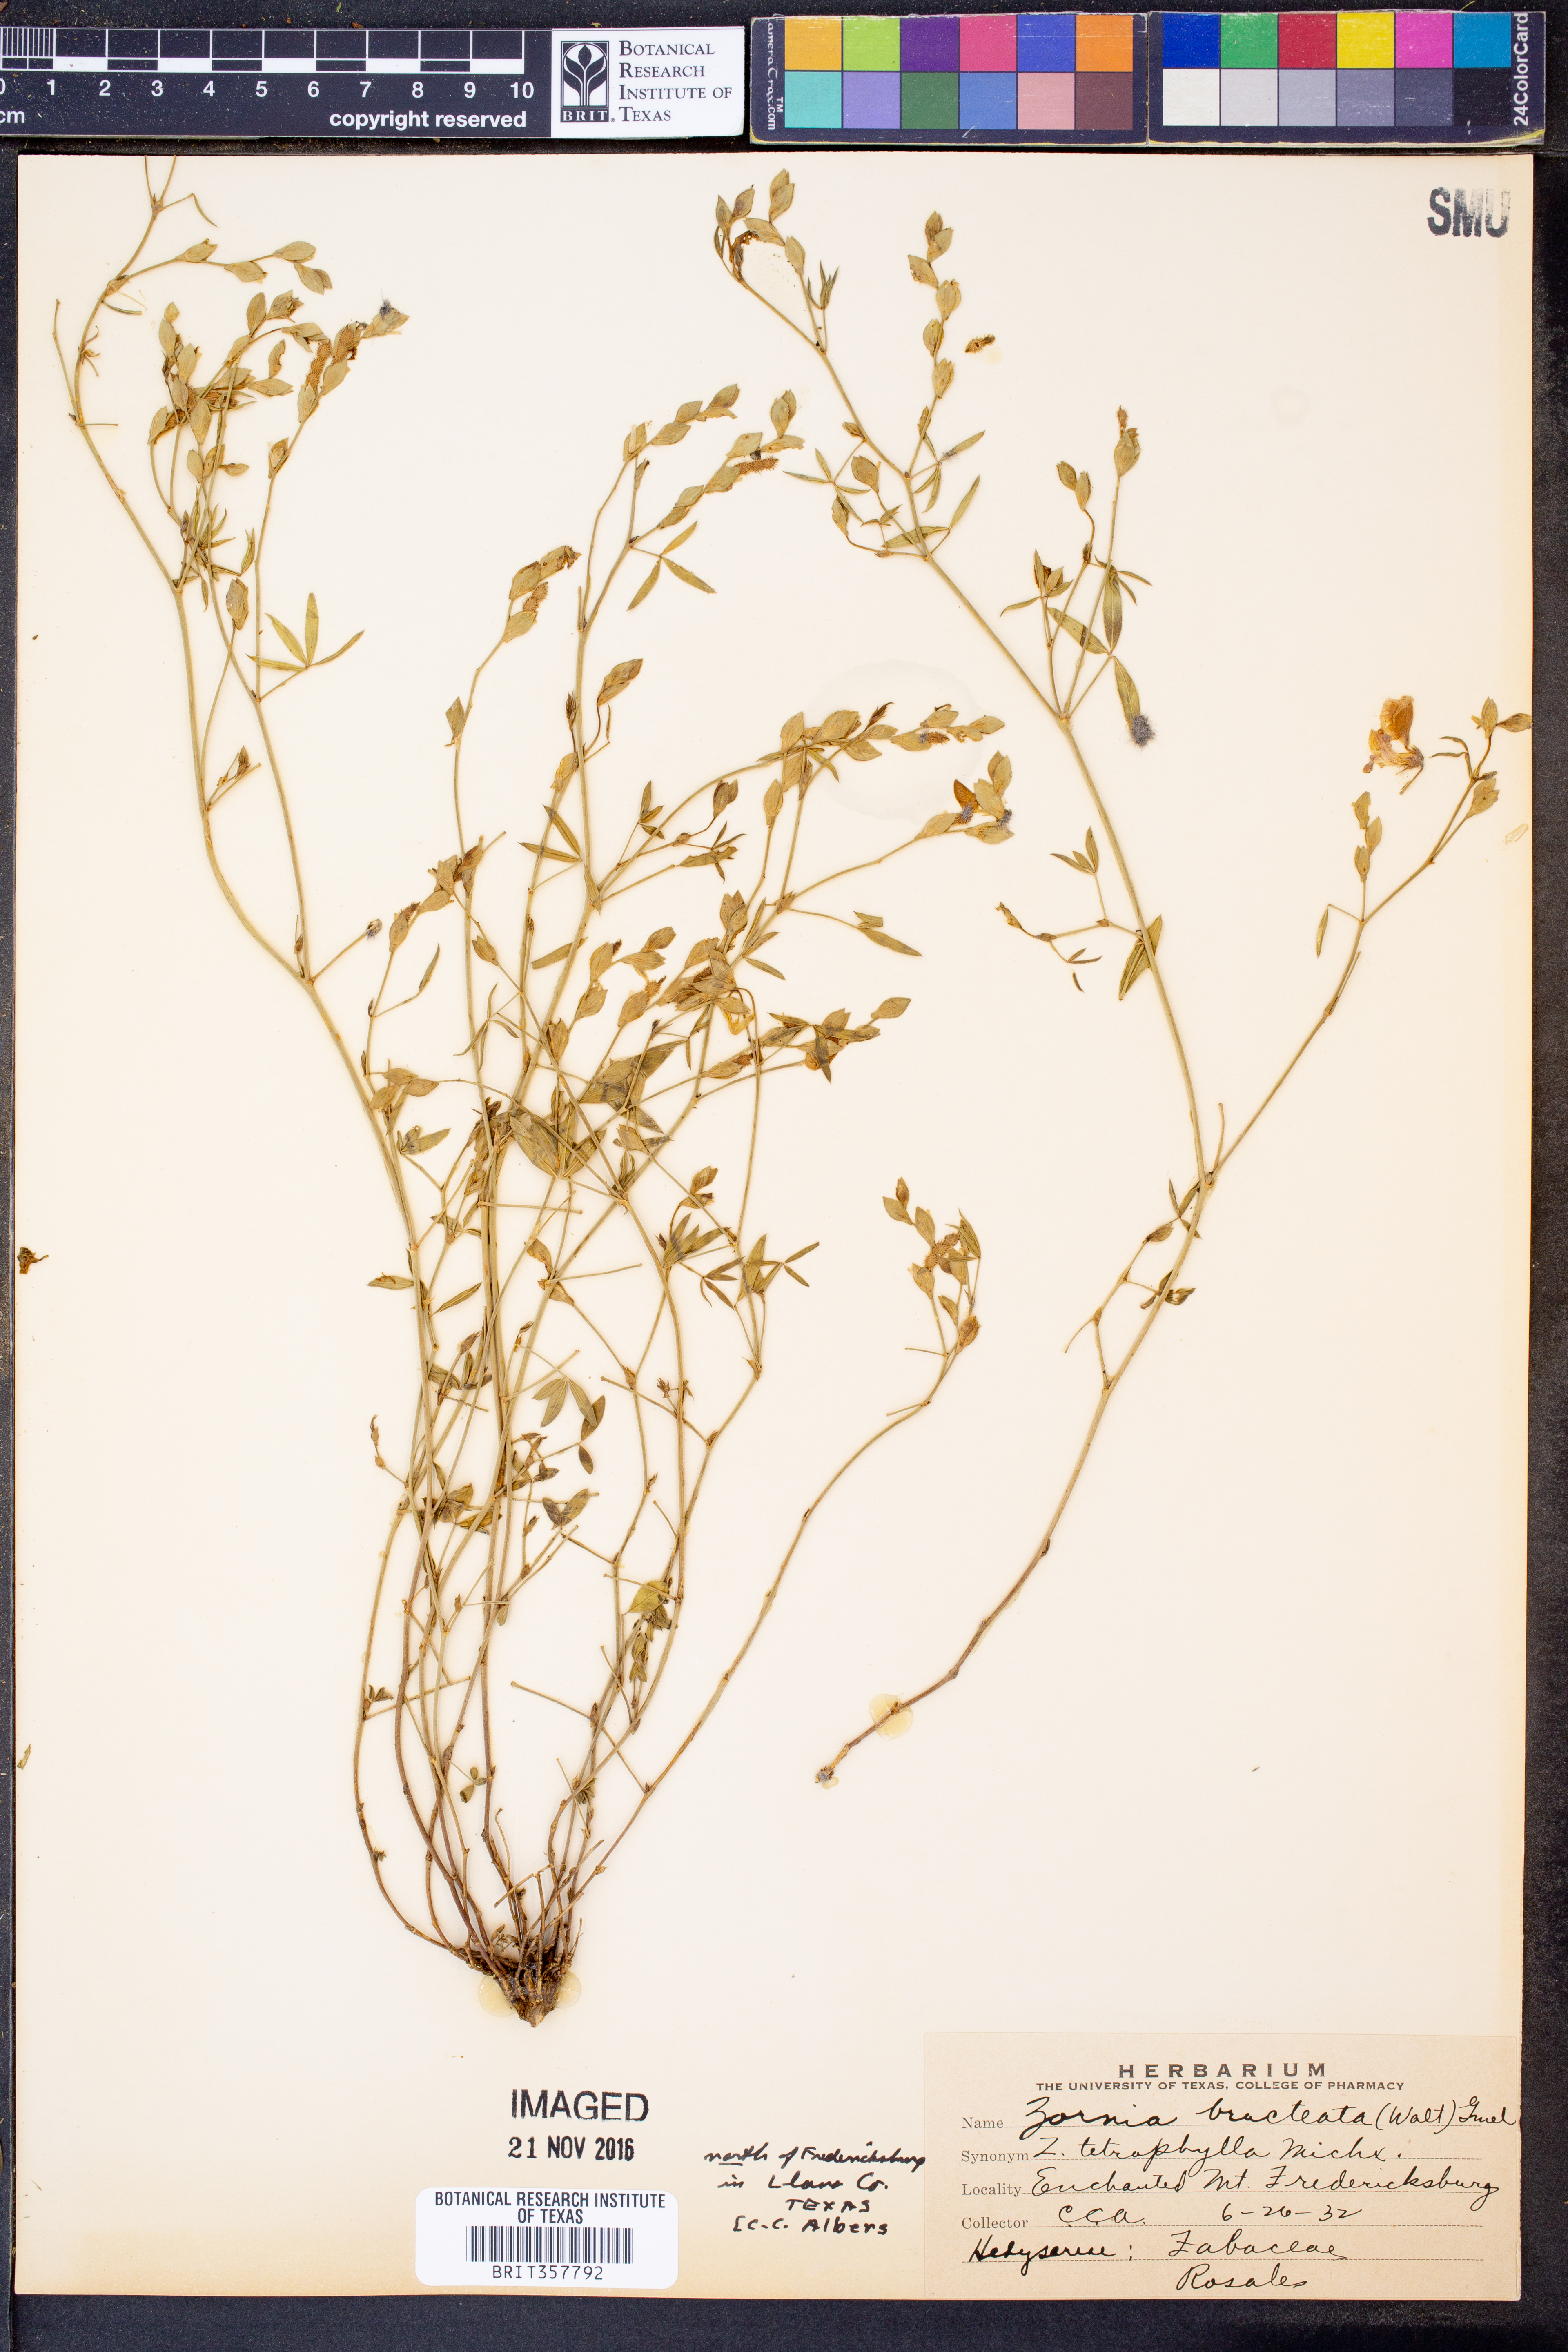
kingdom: Plantae
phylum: Tracheophyta
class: Magnoliopsida
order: Fabales
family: Fabaceae
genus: Zornia
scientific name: Zornia bracteata
